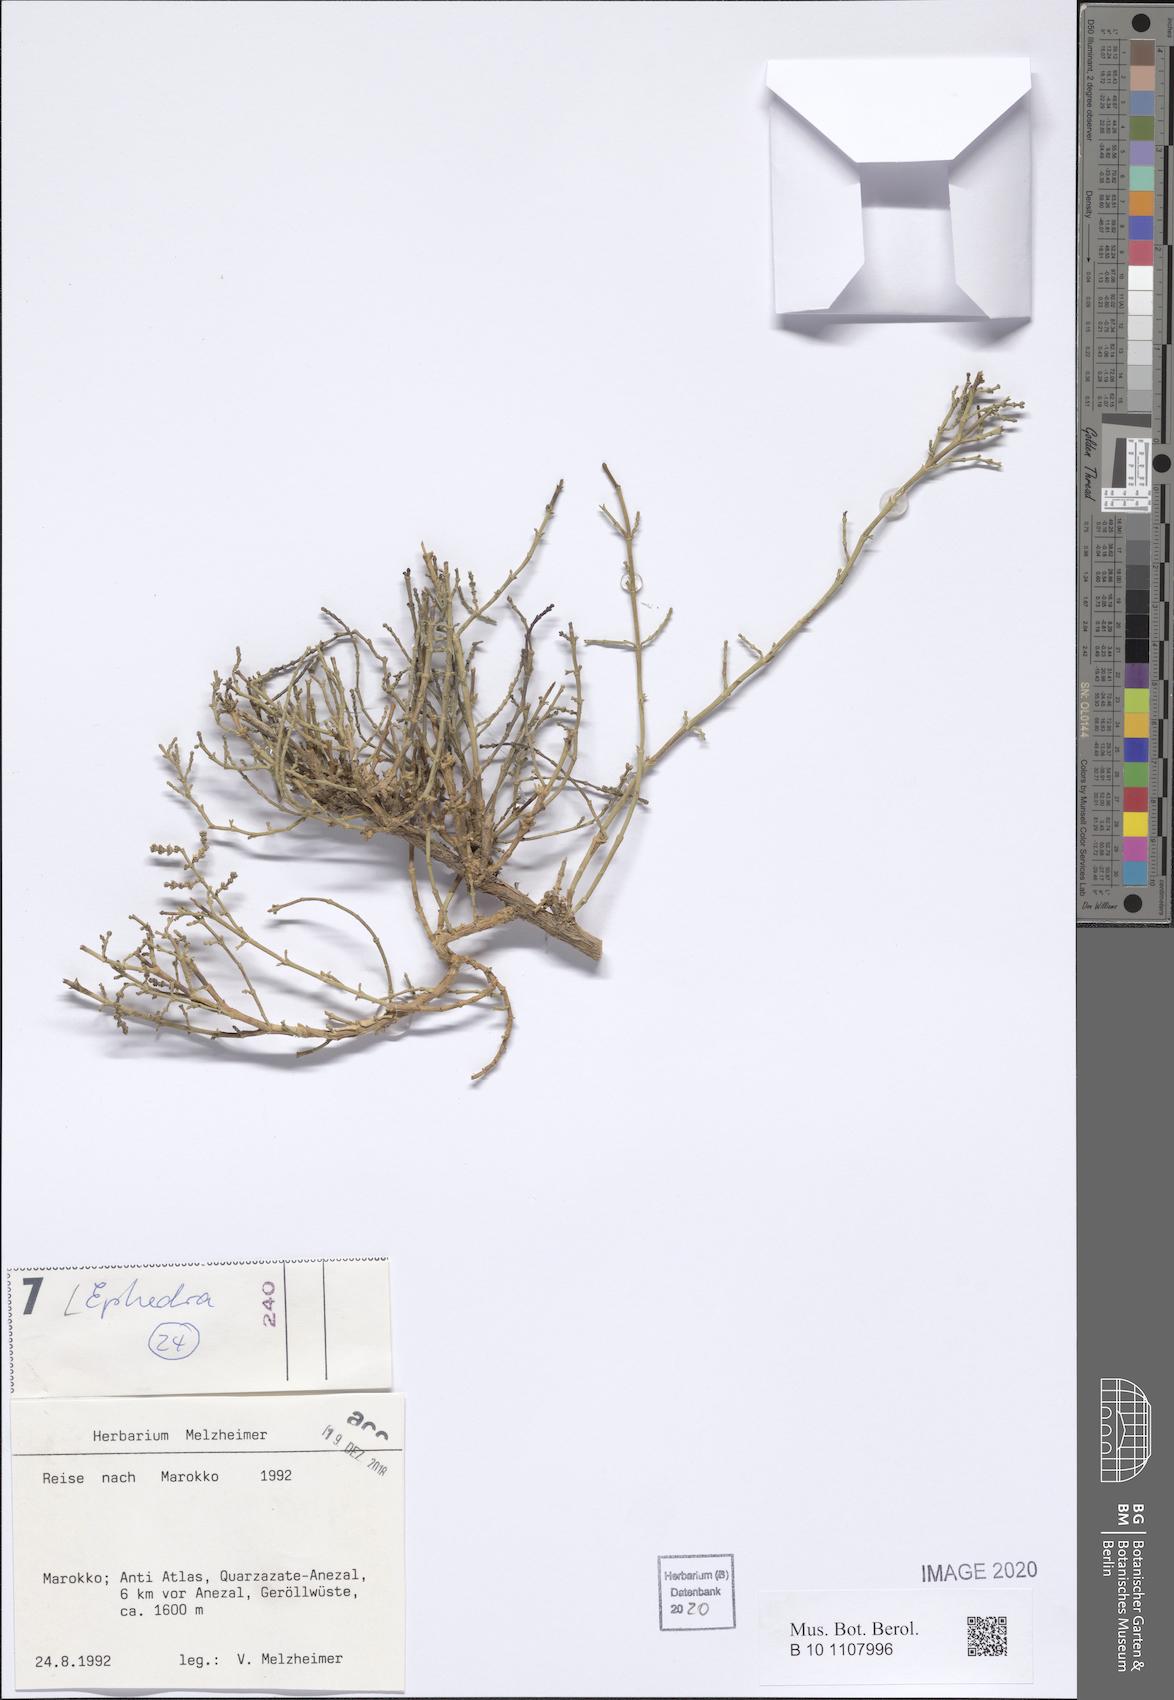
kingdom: Plantae
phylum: Tracheophyta
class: Gnetopsida
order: Ephedrales
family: Ephedraceae
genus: Ephedra
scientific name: Ephedra
